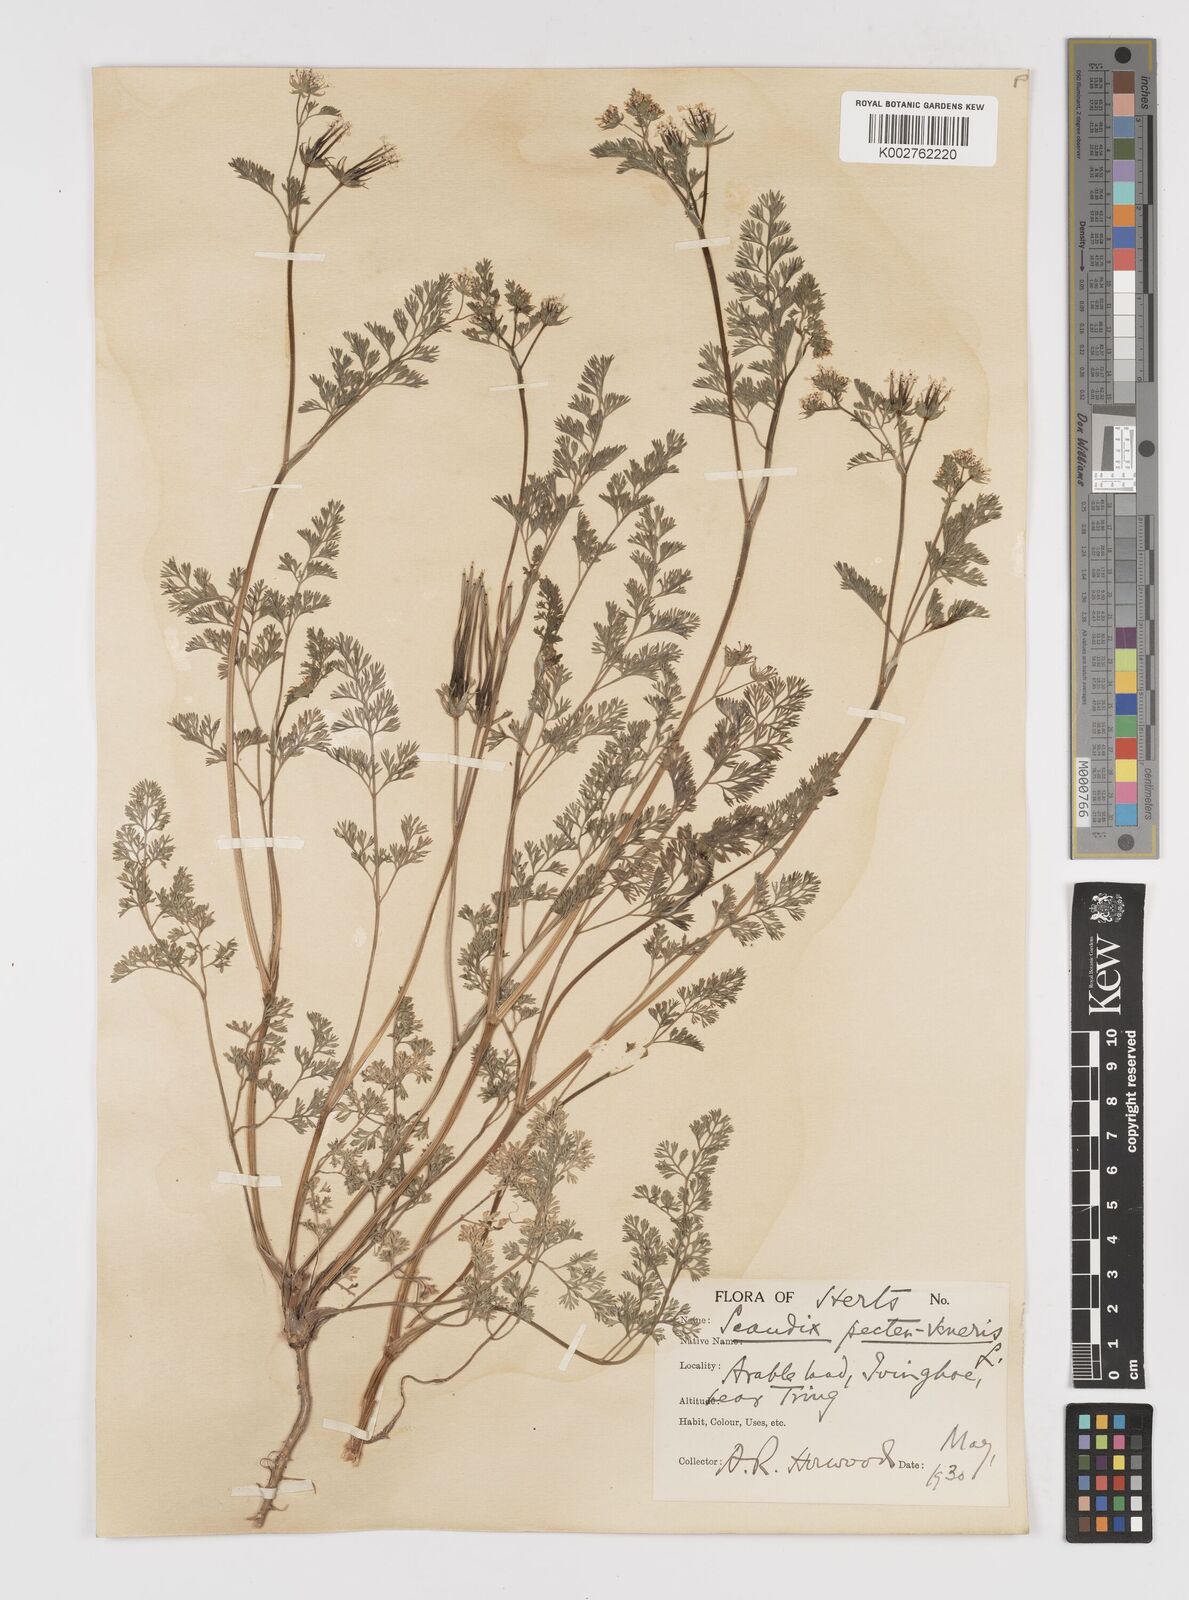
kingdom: Plantae
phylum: Tracheophyta
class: Magnoliopsida
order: Apiales
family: Apiaceae
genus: Scandix
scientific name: Scandix pecten-veneris
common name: Shepherd's-needle
